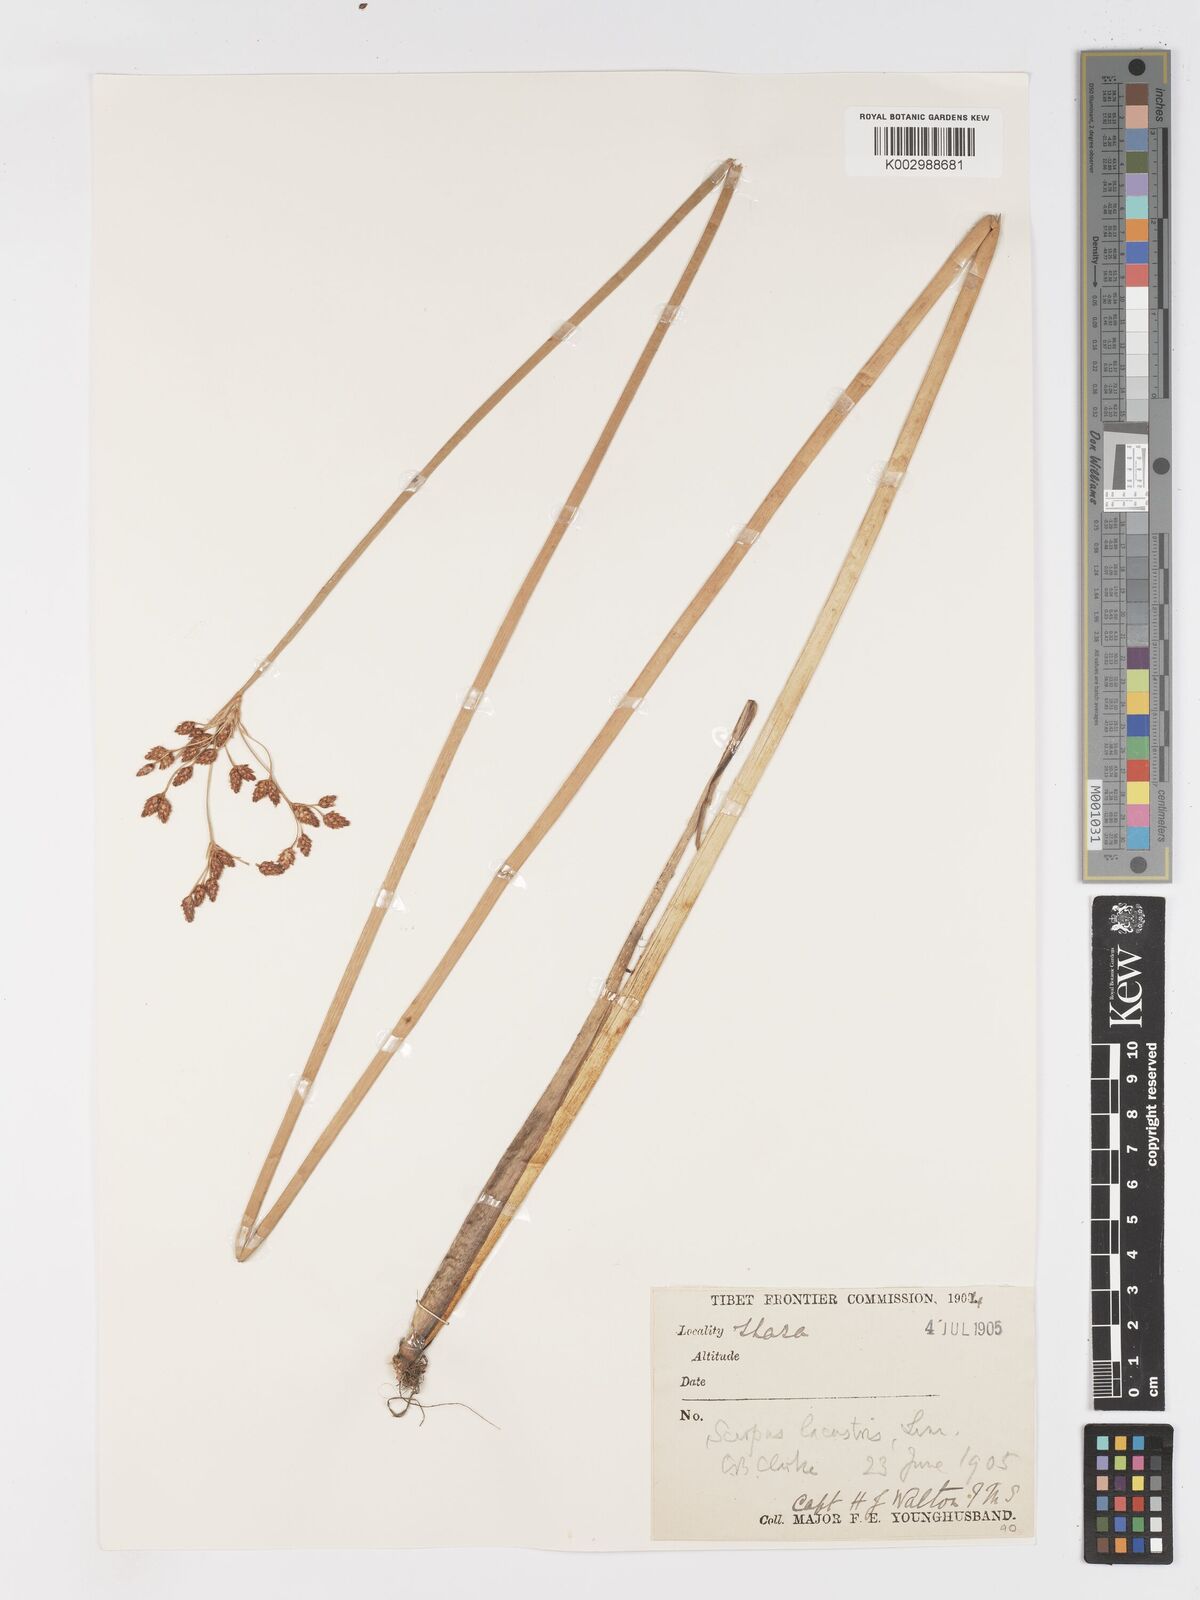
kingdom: Plantae
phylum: Tracheophyta
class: Liliopsida
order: Poales
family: Cyperaceae
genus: Schoenoplectus
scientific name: Schoenoplectus lacustris
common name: Common club-rush
